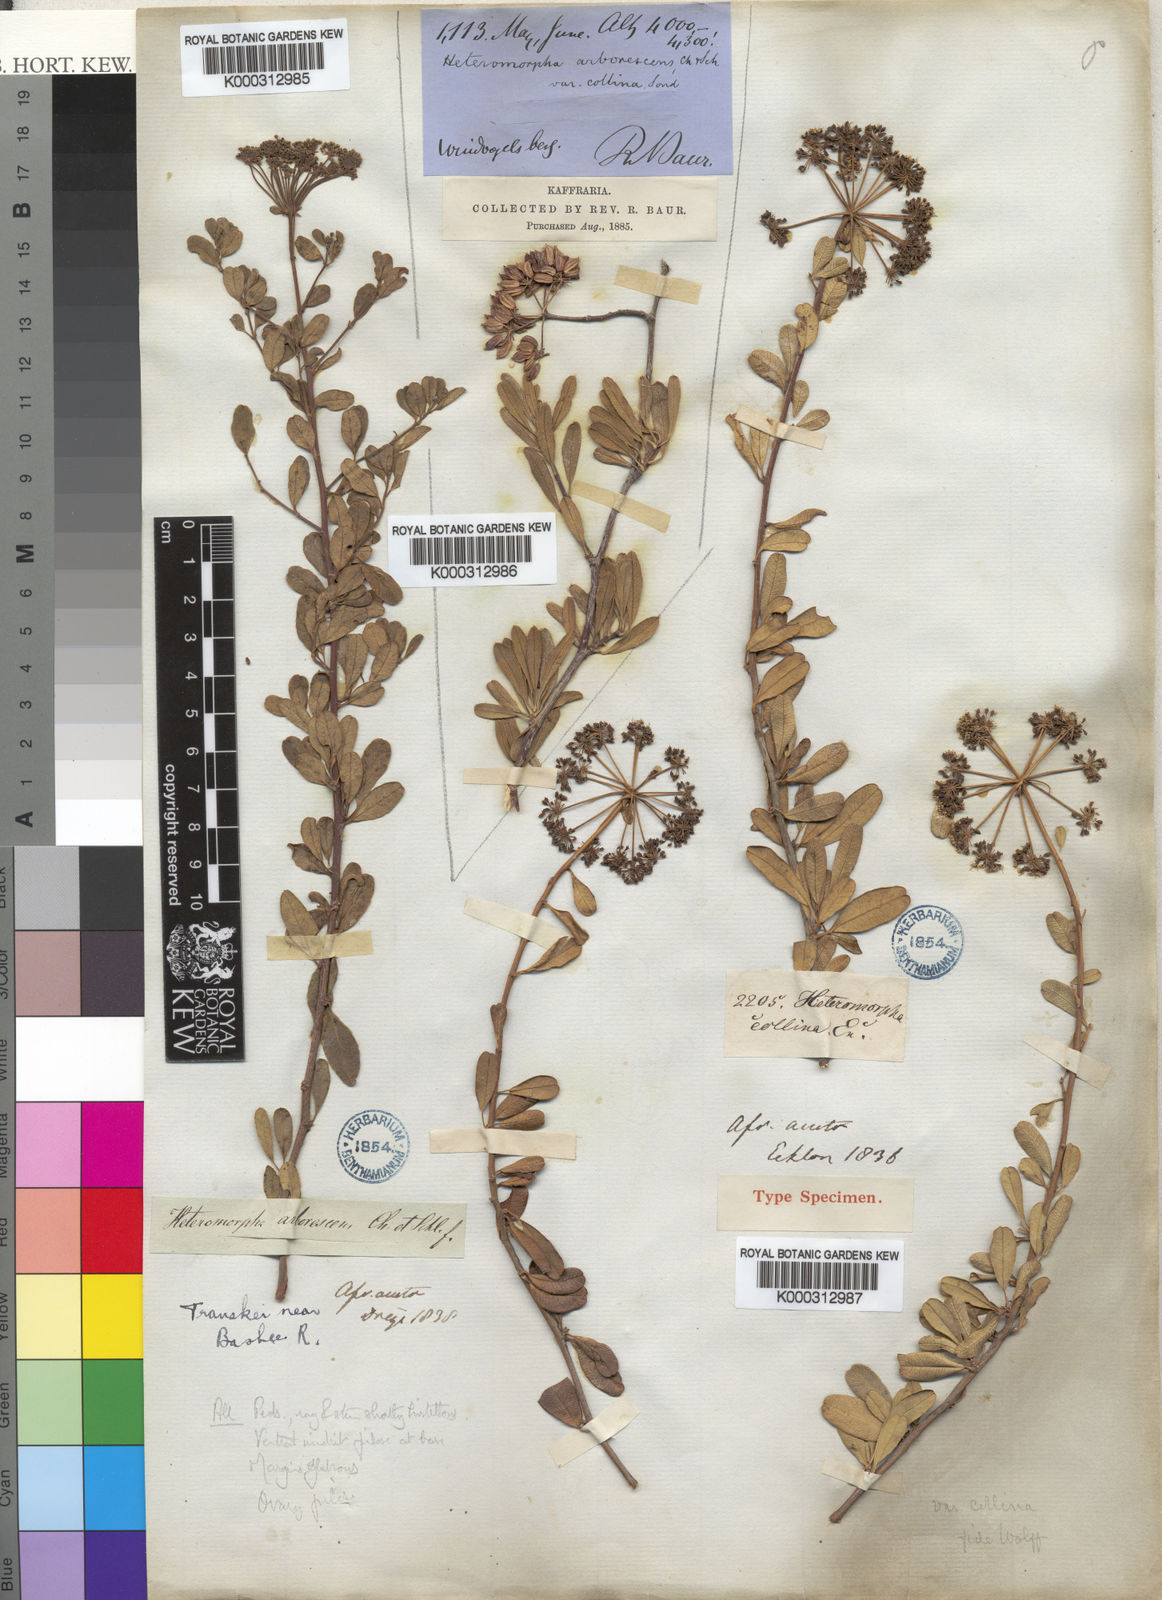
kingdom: Plantae
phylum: Tracheophyta
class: Magnoliopsida
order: Apiales
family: Apiaceae
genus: Heteromorpha
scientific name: Heteromorpha arborescens
